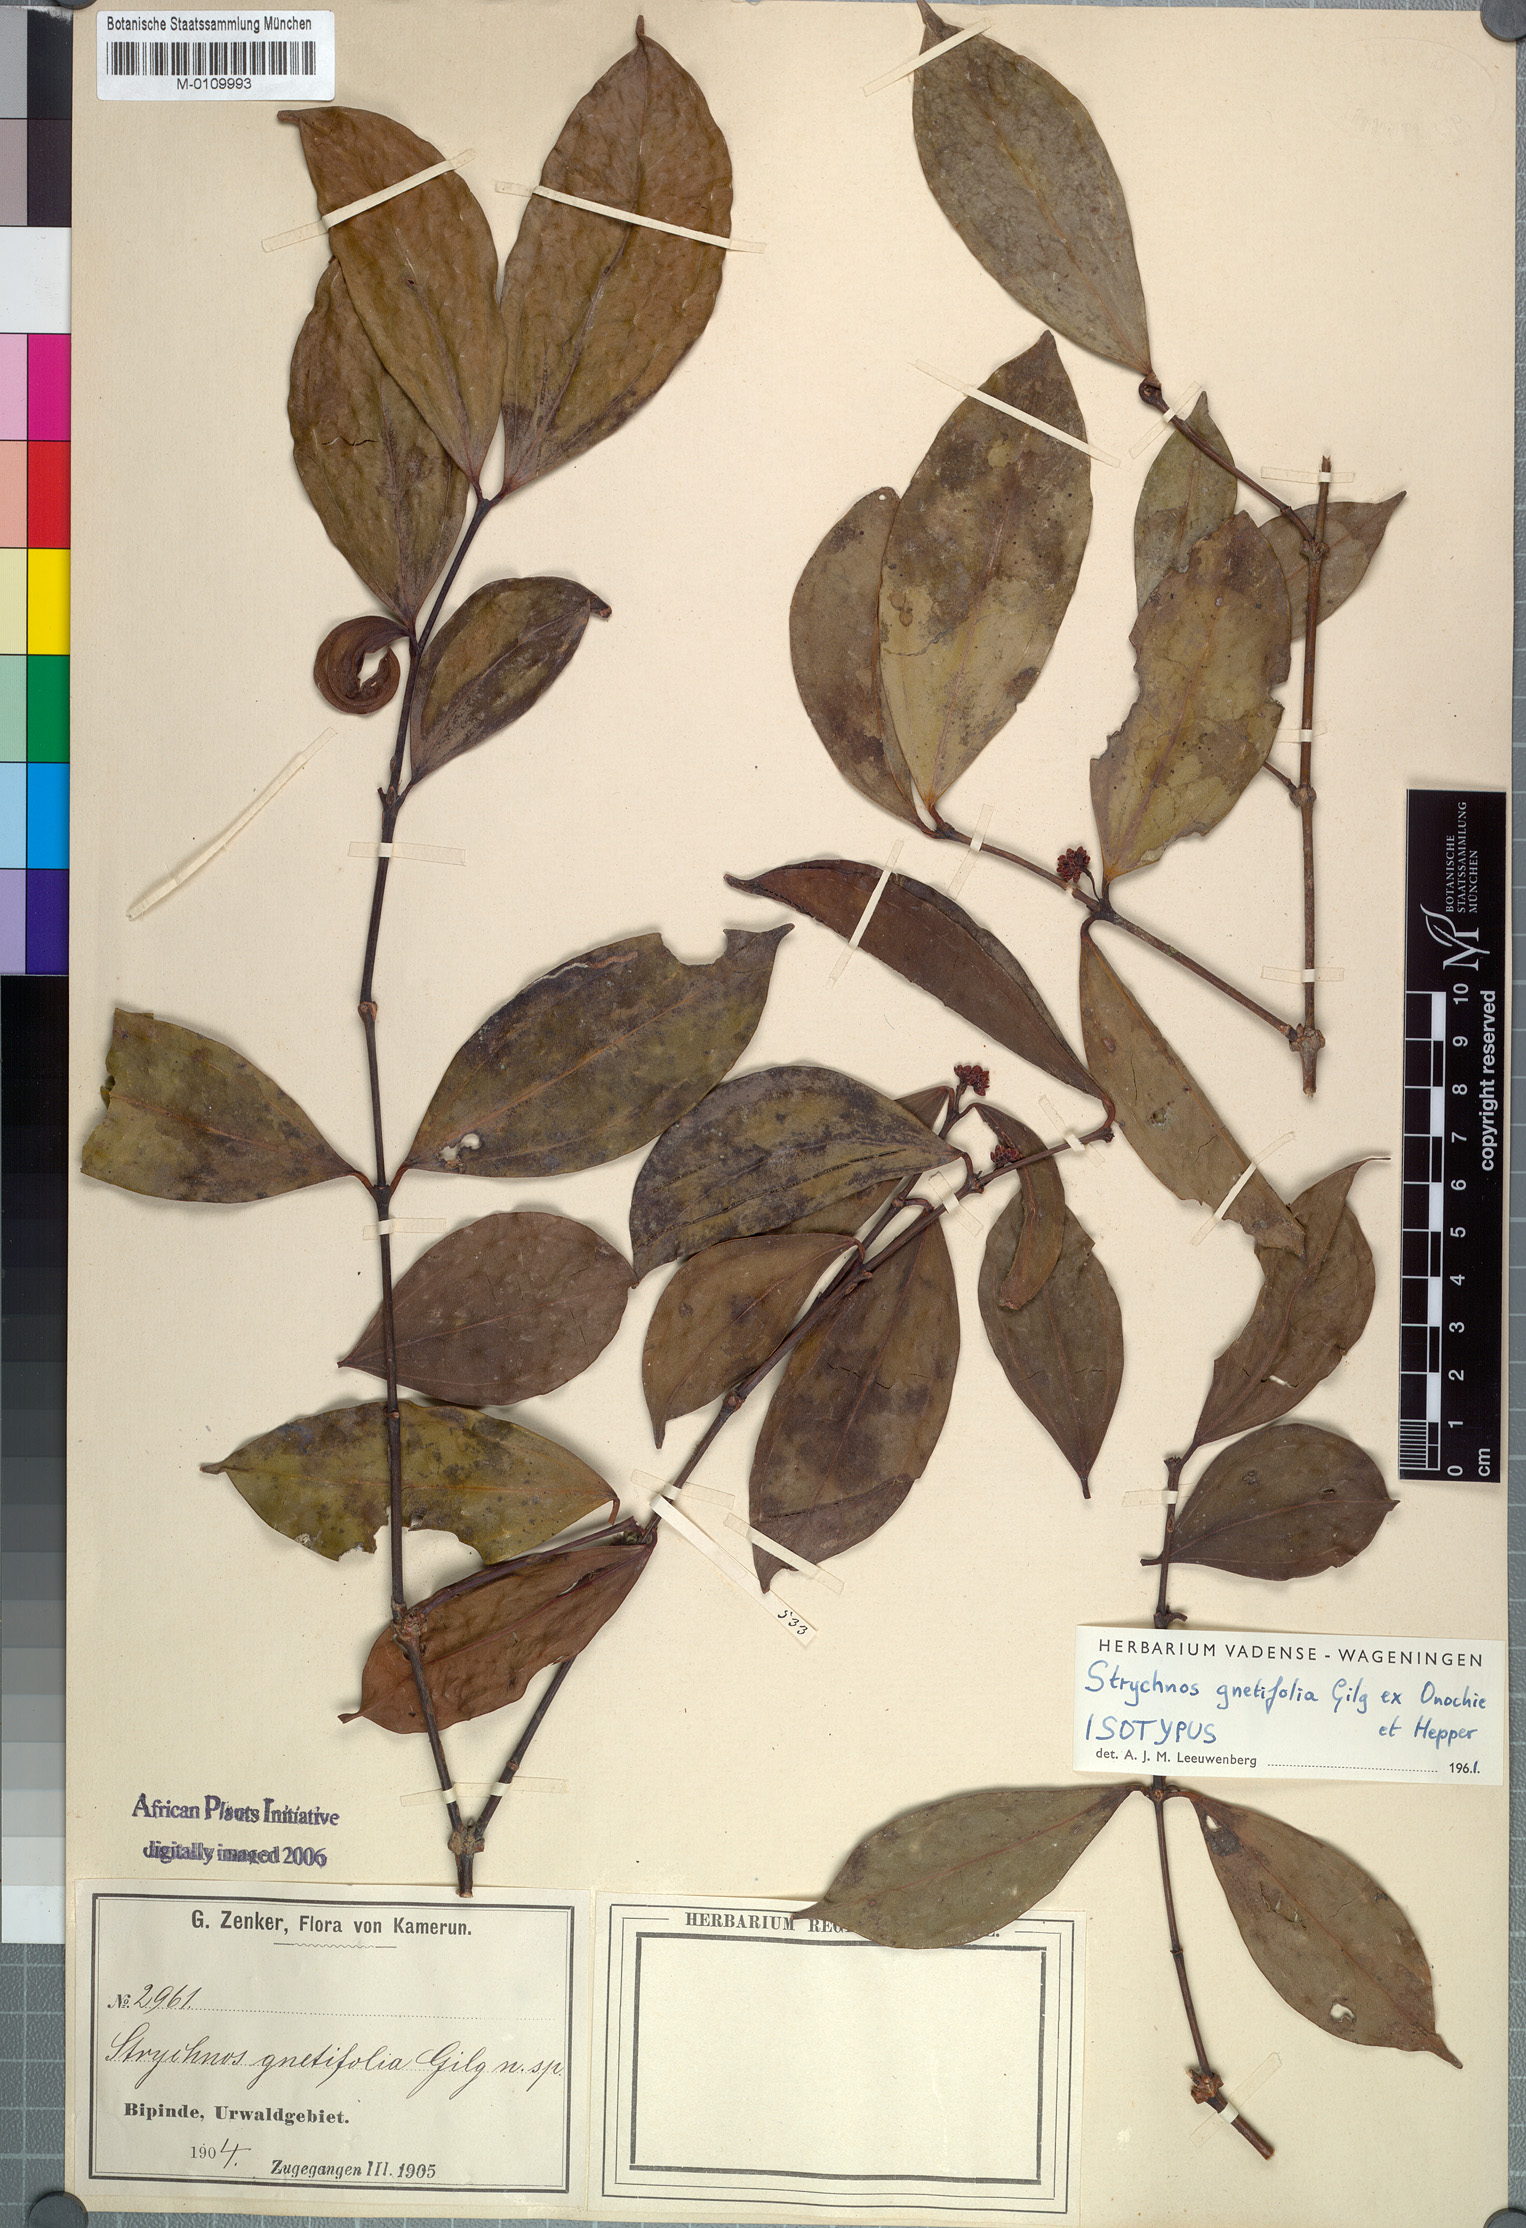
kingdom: Plantae
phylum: Tracheophyta
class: Magnoliopsida
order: Gentianales
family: Loganiaceae
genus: Strychnos
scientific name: Strychnos gnetifolia
